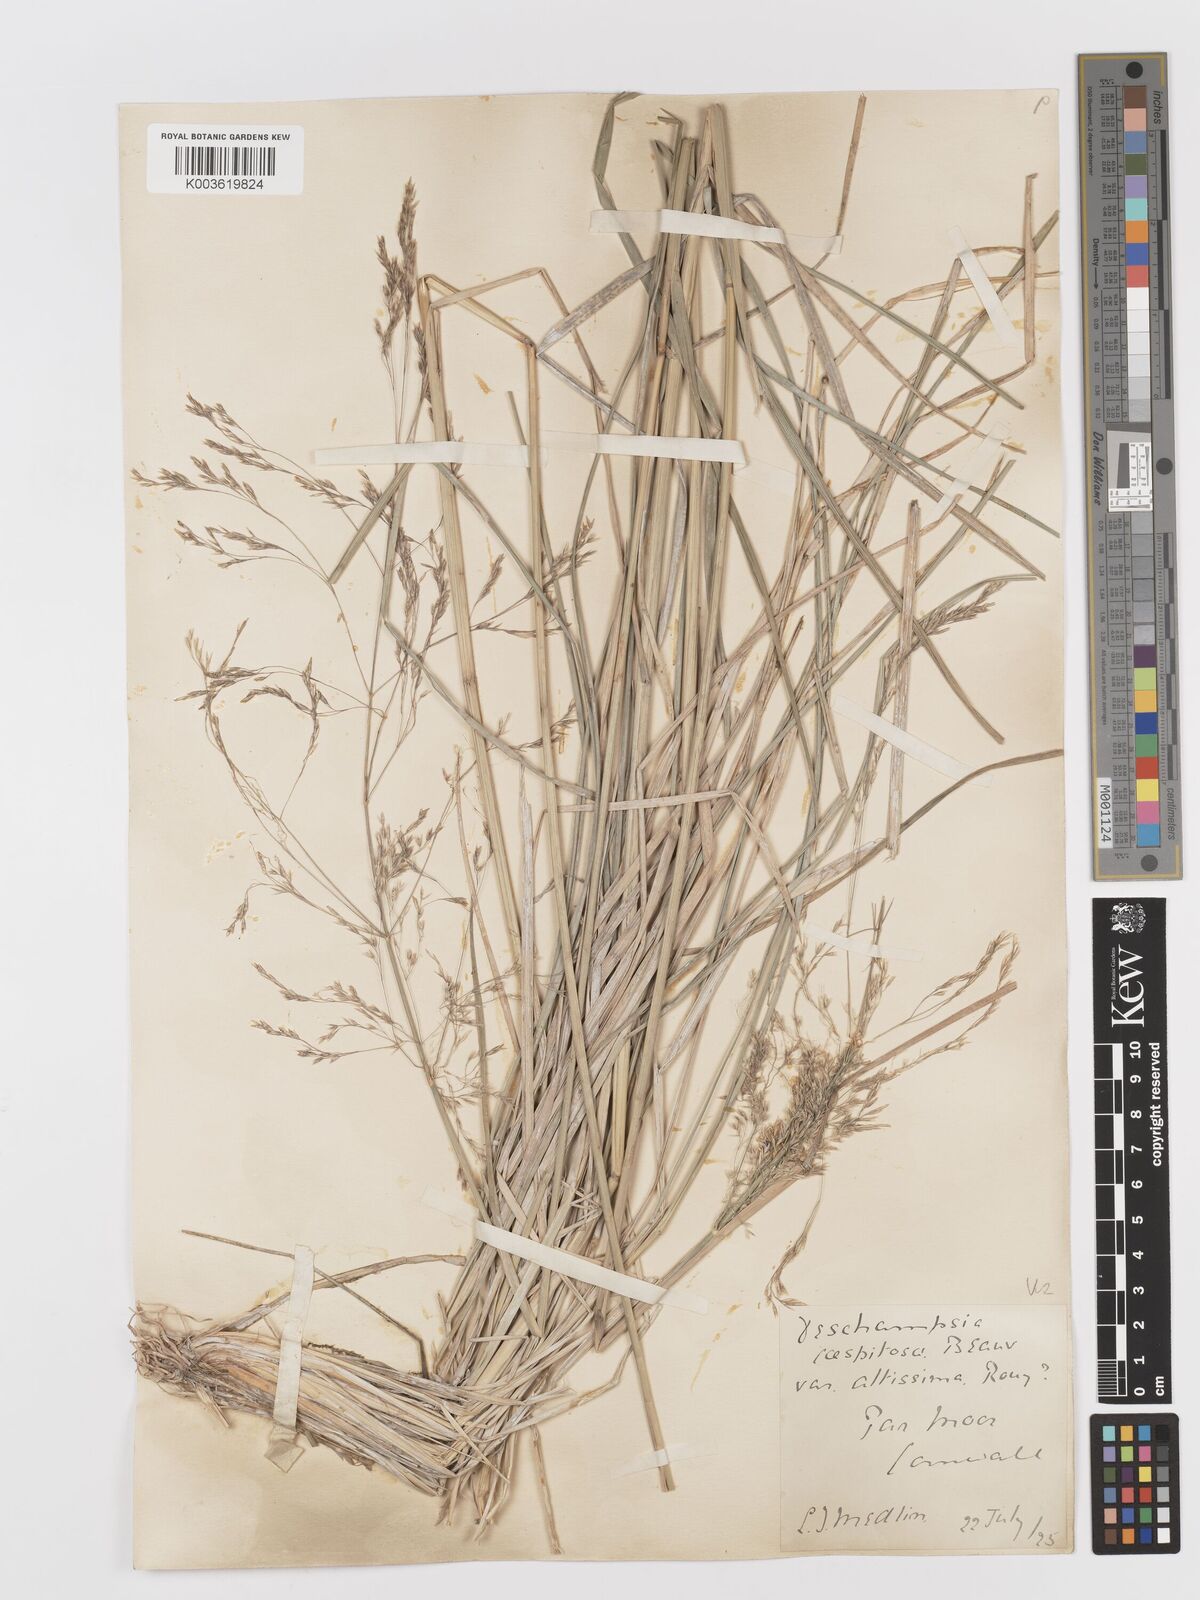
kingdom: Plantae
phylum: Tracheophyta
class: Liliopsida
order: Poales
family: Poaceae
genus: Deschampsia
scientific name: Deschampsia cespitosa
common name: Tufted hair-grass
